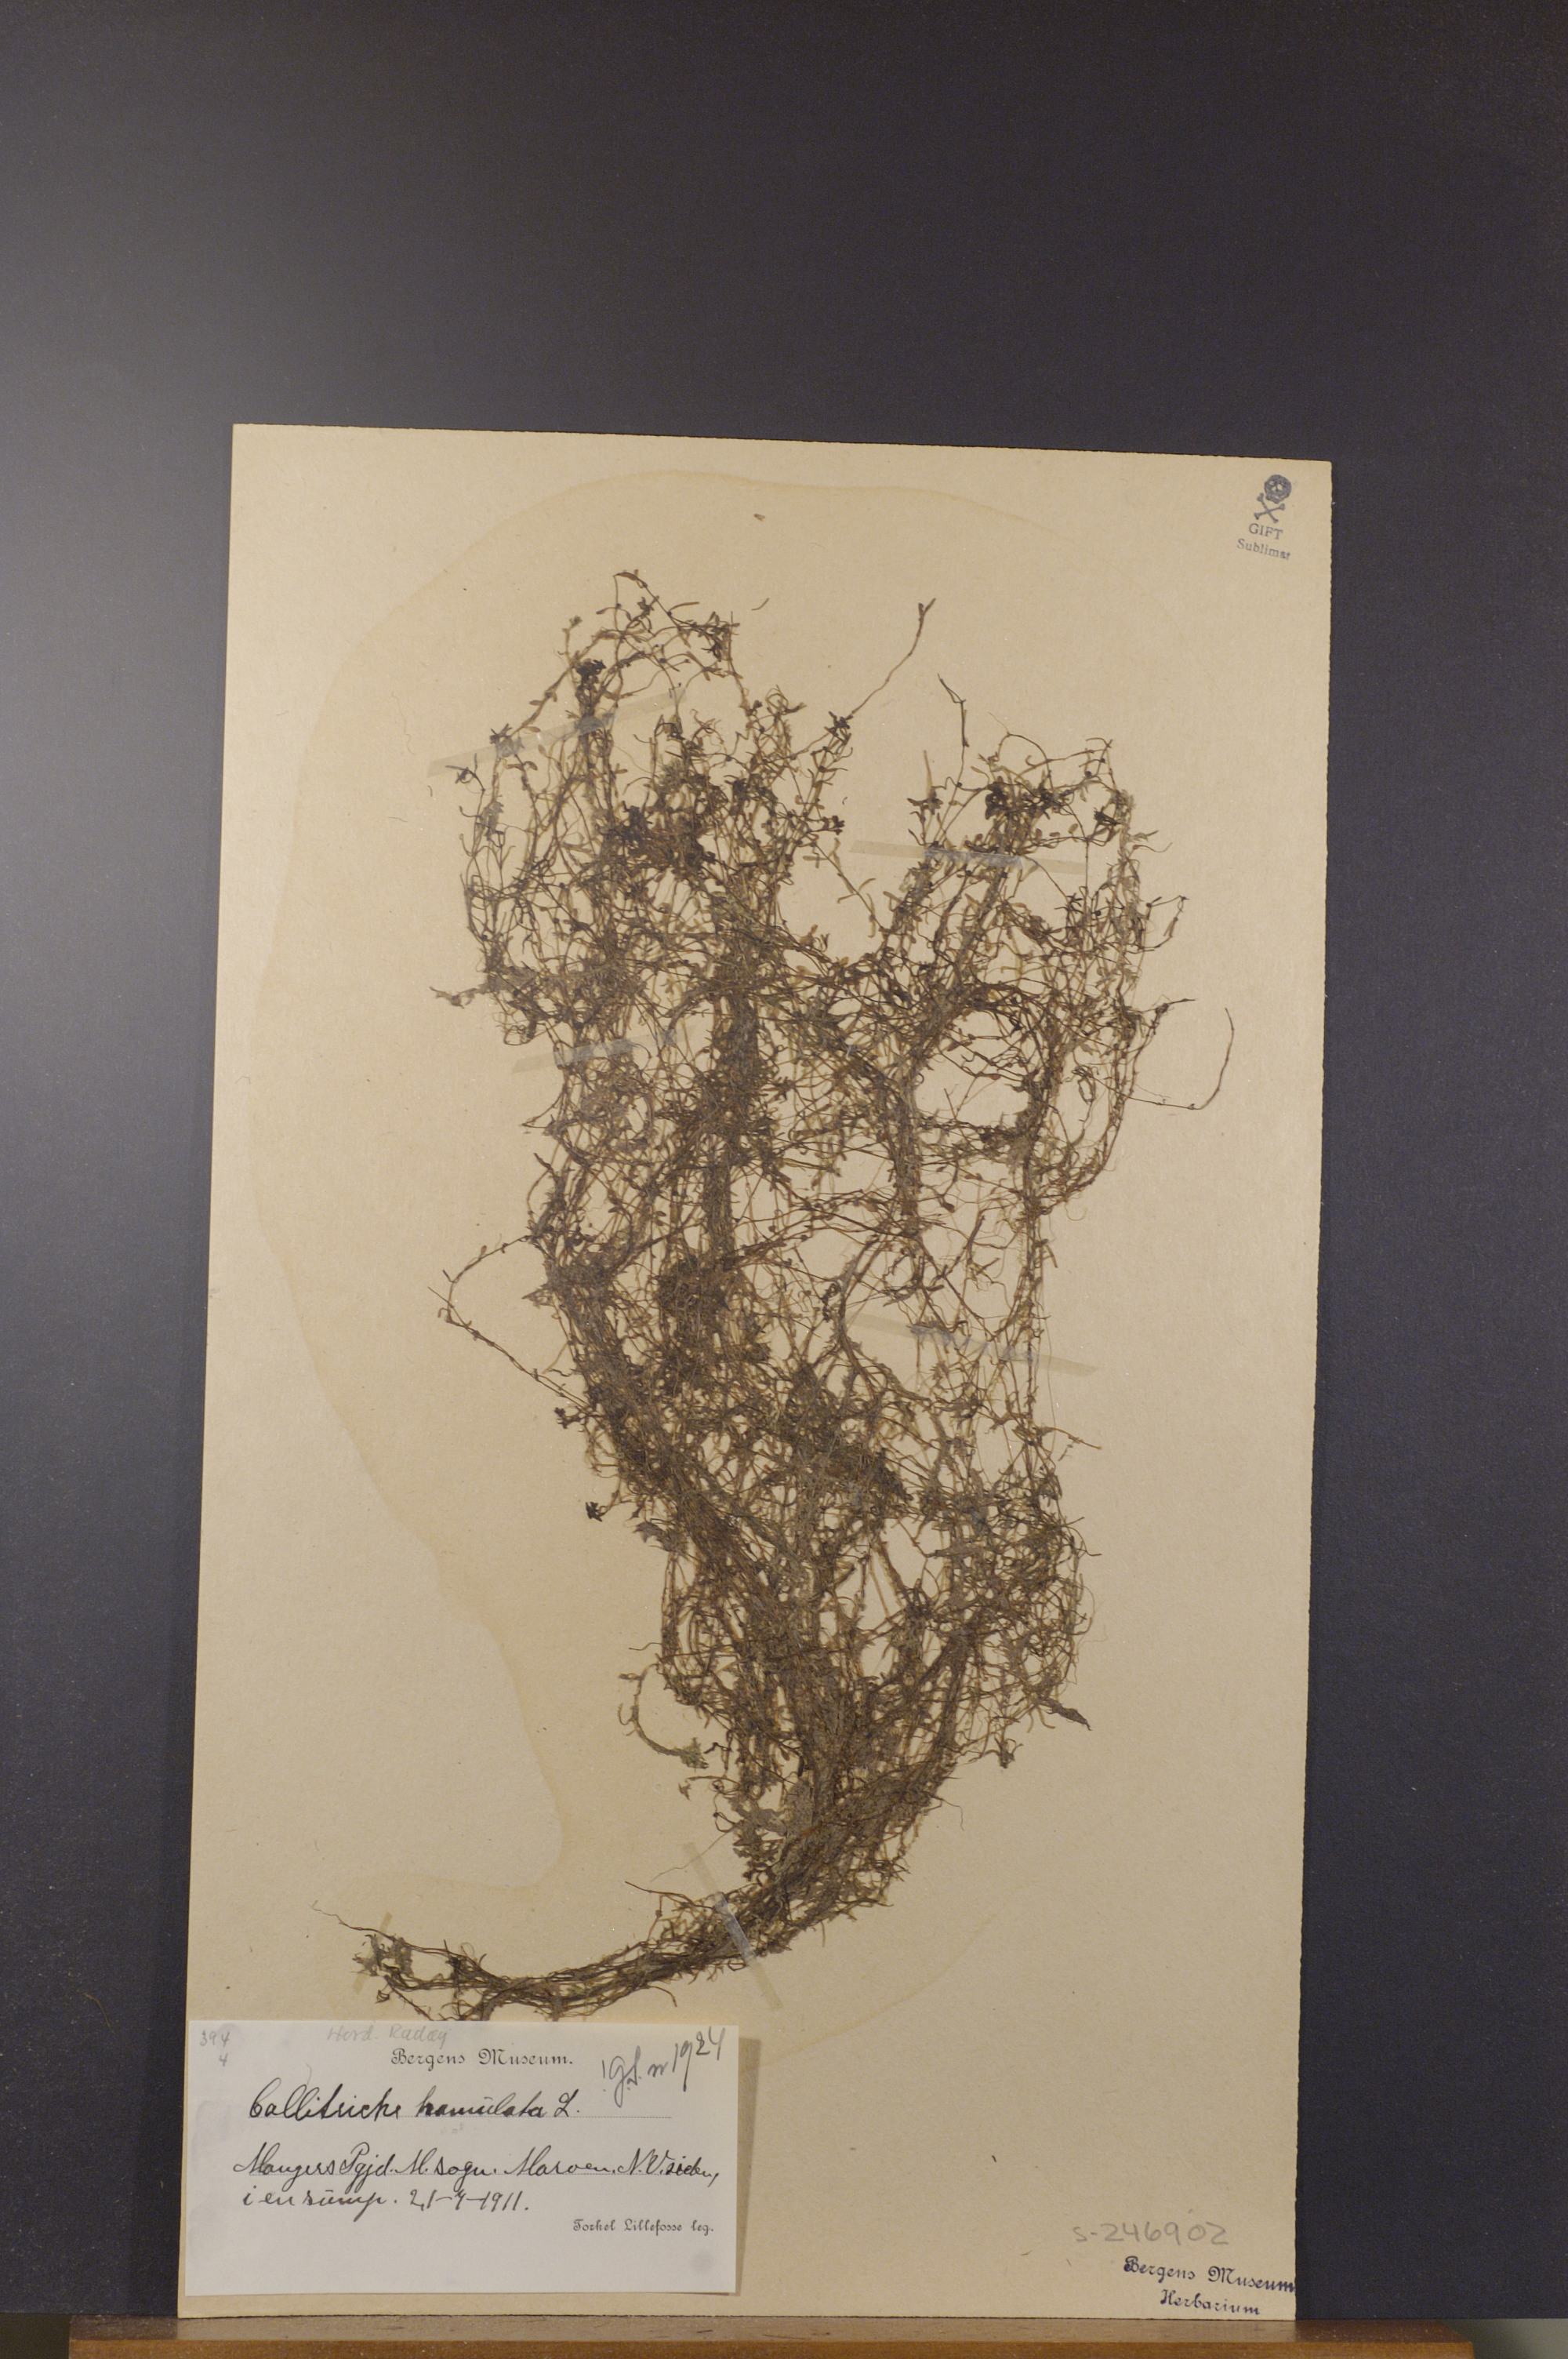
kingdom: Plantae
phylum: Tracheophyta
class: Magnoliopsida
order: Lamiales
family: Plantaginaceae
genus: Callitriche
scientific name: Callitriche hamulata
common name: Intermediate water-starwort
